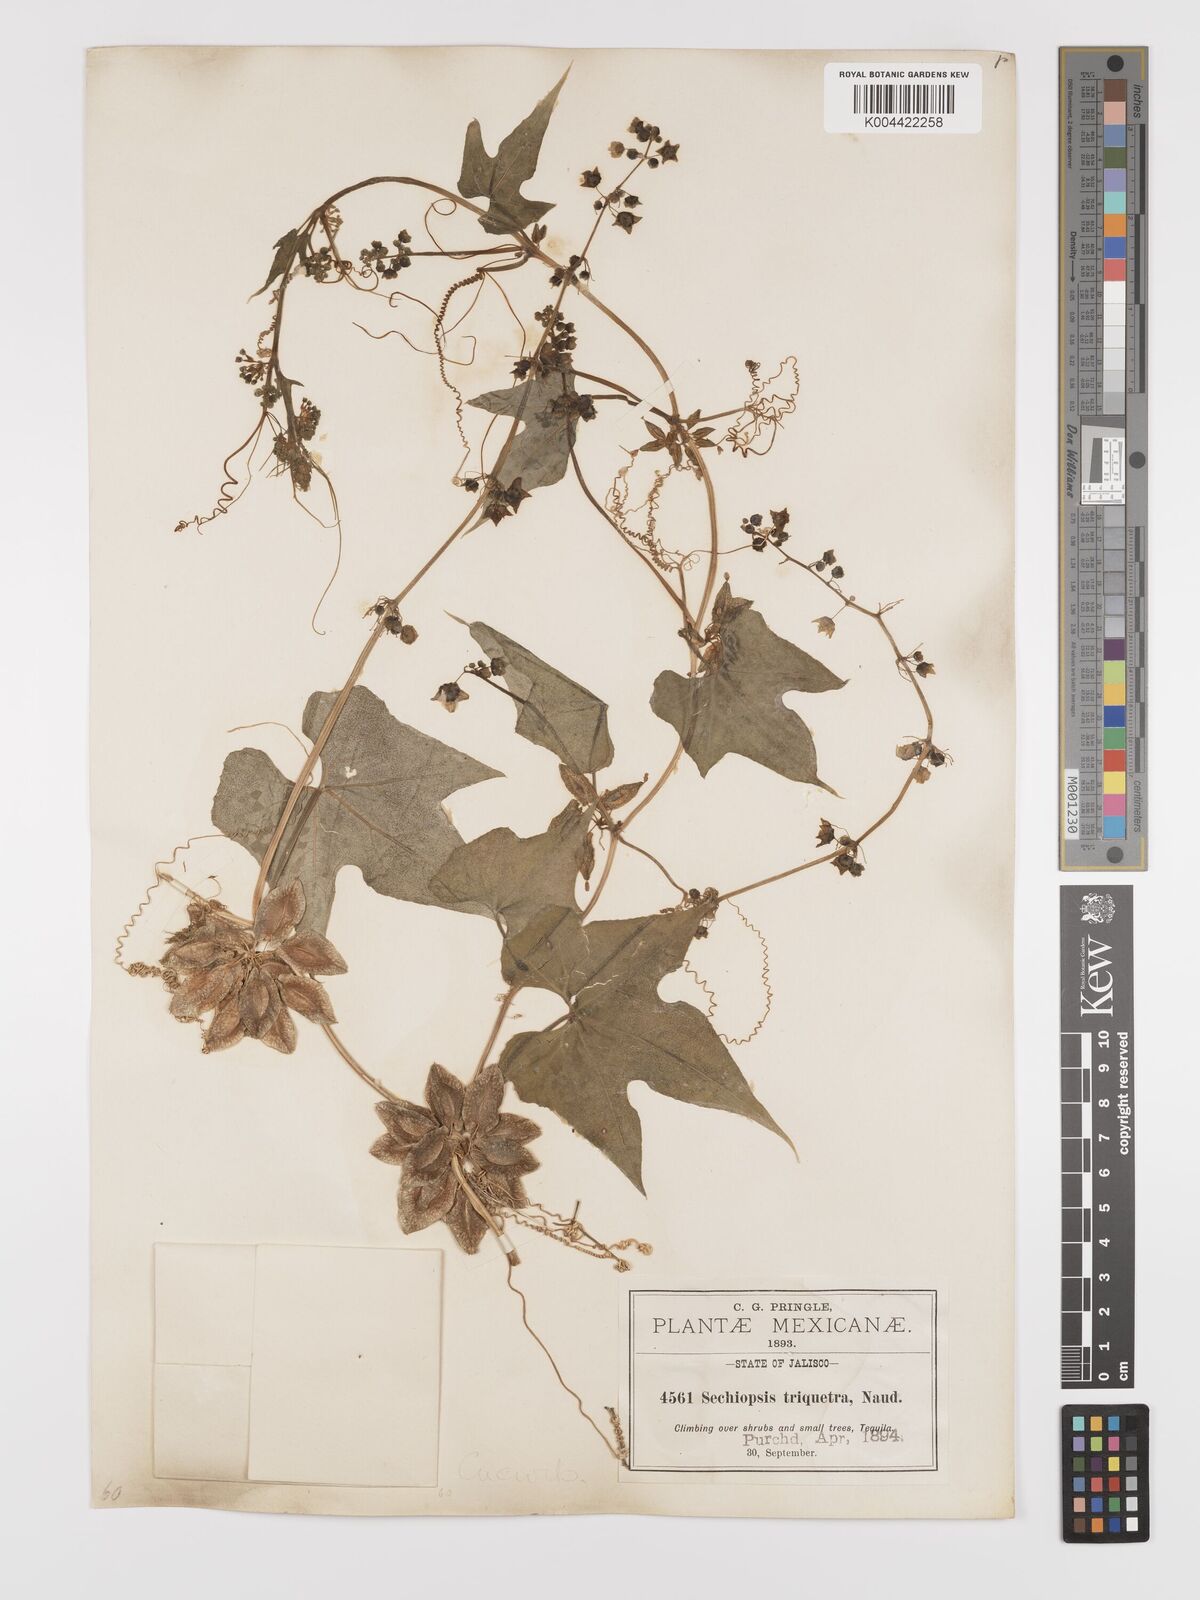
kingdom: Plantae
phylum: Tracheophyta
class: Magnoliopsida
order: Cucurbitales
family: Cucurbitaceae
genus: Sechiopsis
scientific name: Sechiopsis triqueter
